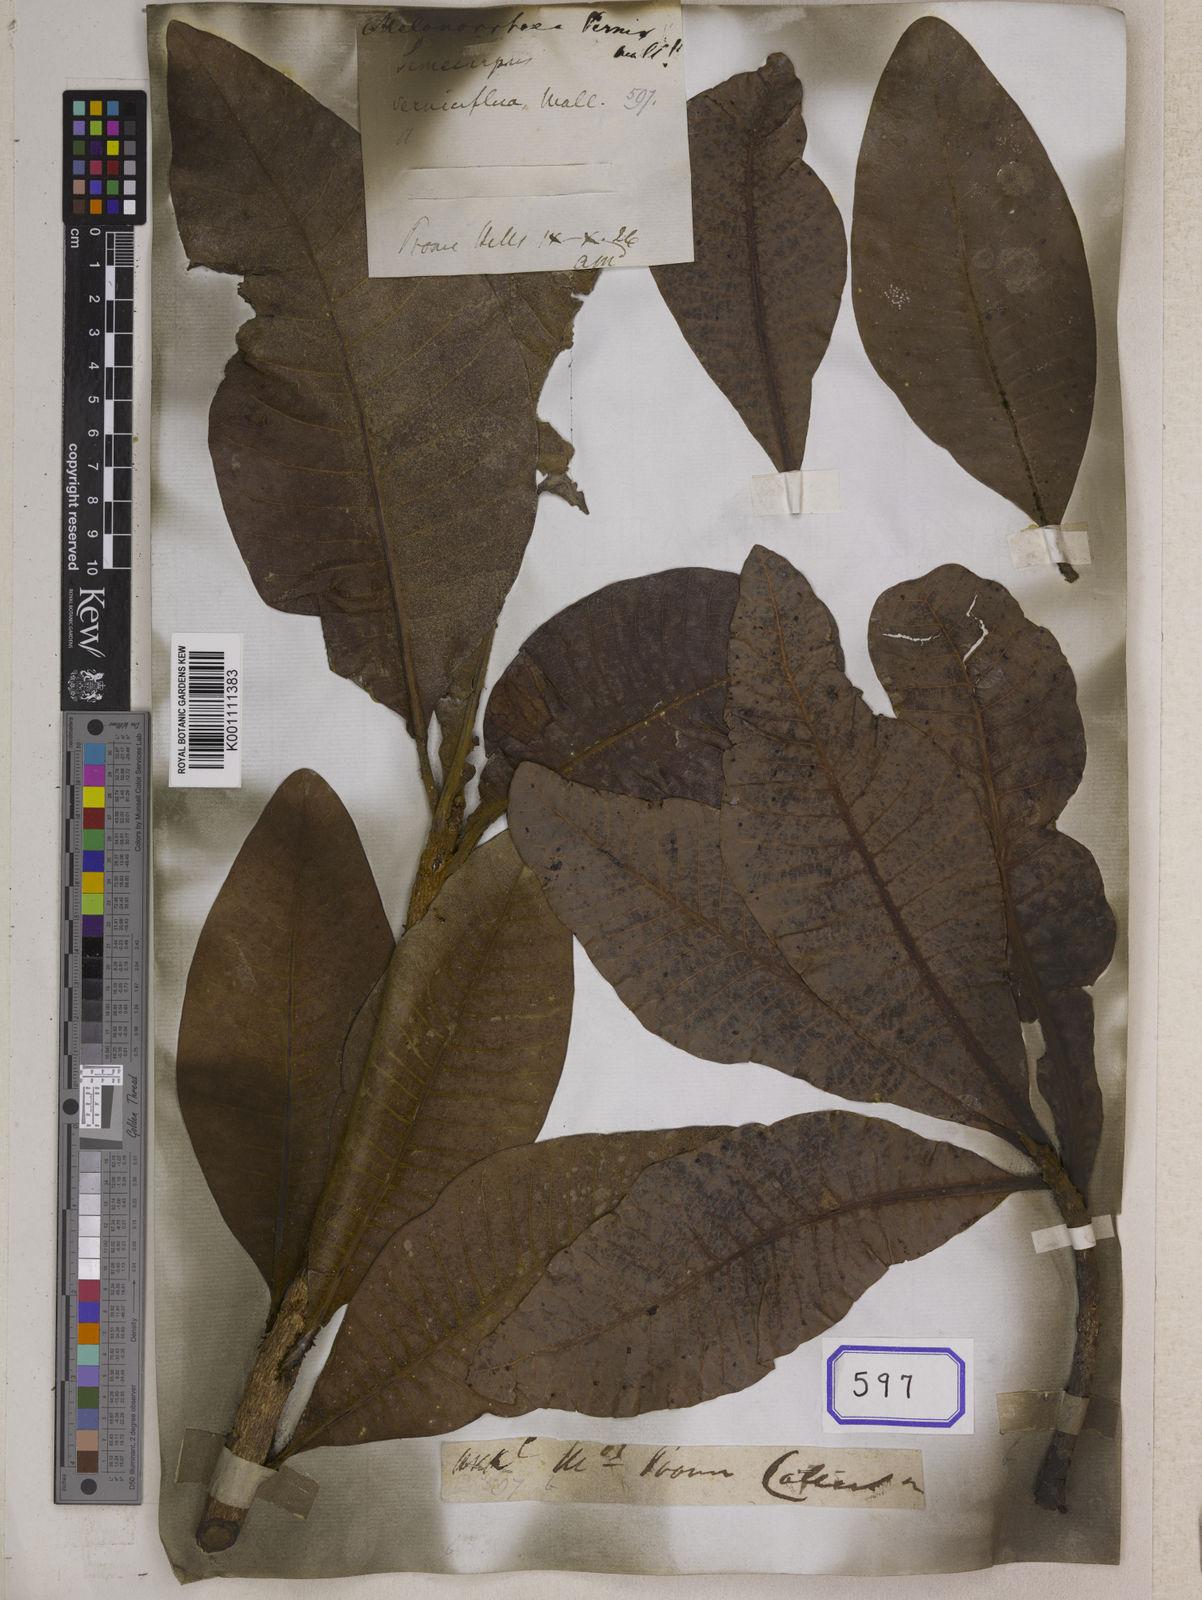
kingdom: Plantae
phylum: Tracheophyta
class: Magnoliopsida
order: Sapindales
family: Anacardiaceae
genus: Gluta
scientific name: Gluta
